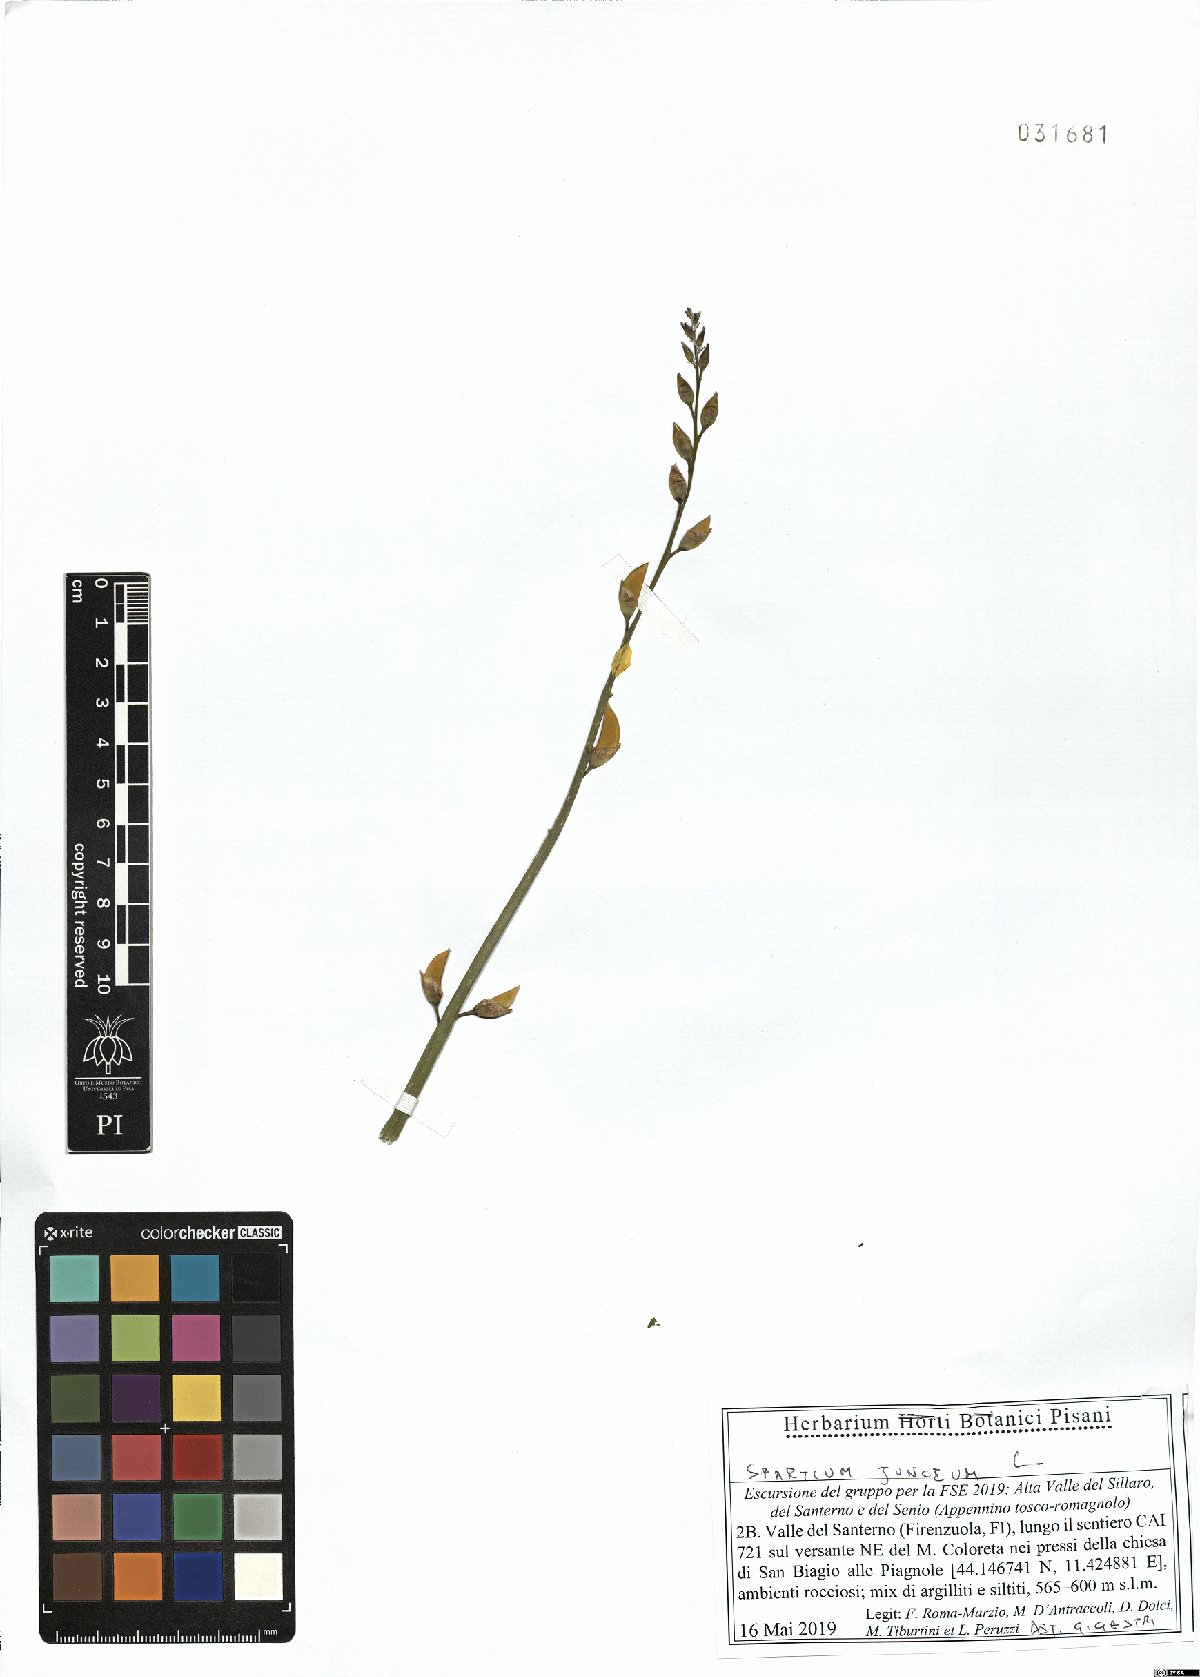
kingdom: Plantae
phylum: Tracheophyta
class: Magnoliopsida
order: Fabales
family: Fabaceae
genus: Spartium
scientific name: Spartium junceum
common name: Spanish broom
